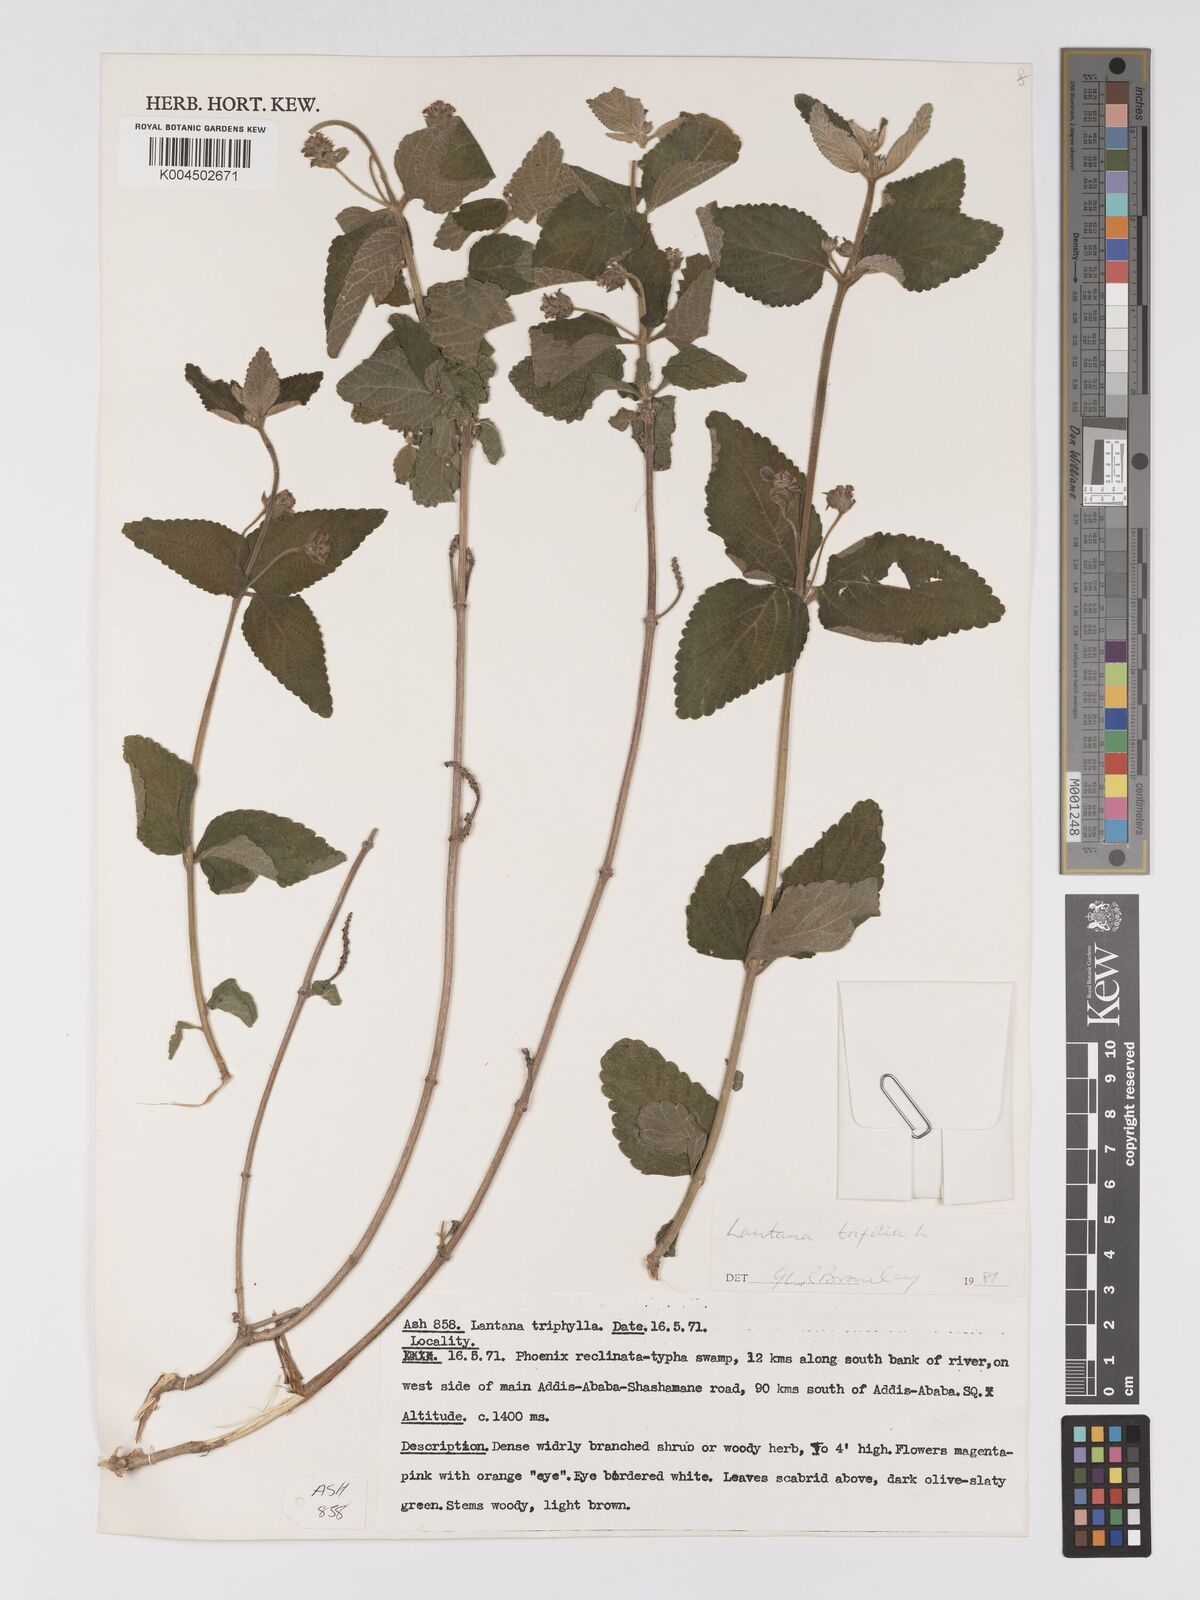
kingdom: Plantae
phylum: Tracheophyta
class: Magnoliopsida
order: Lamiales
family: Verbenaceae
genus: Lantana
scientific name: Lantana trifolia
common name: Sweet-sage
